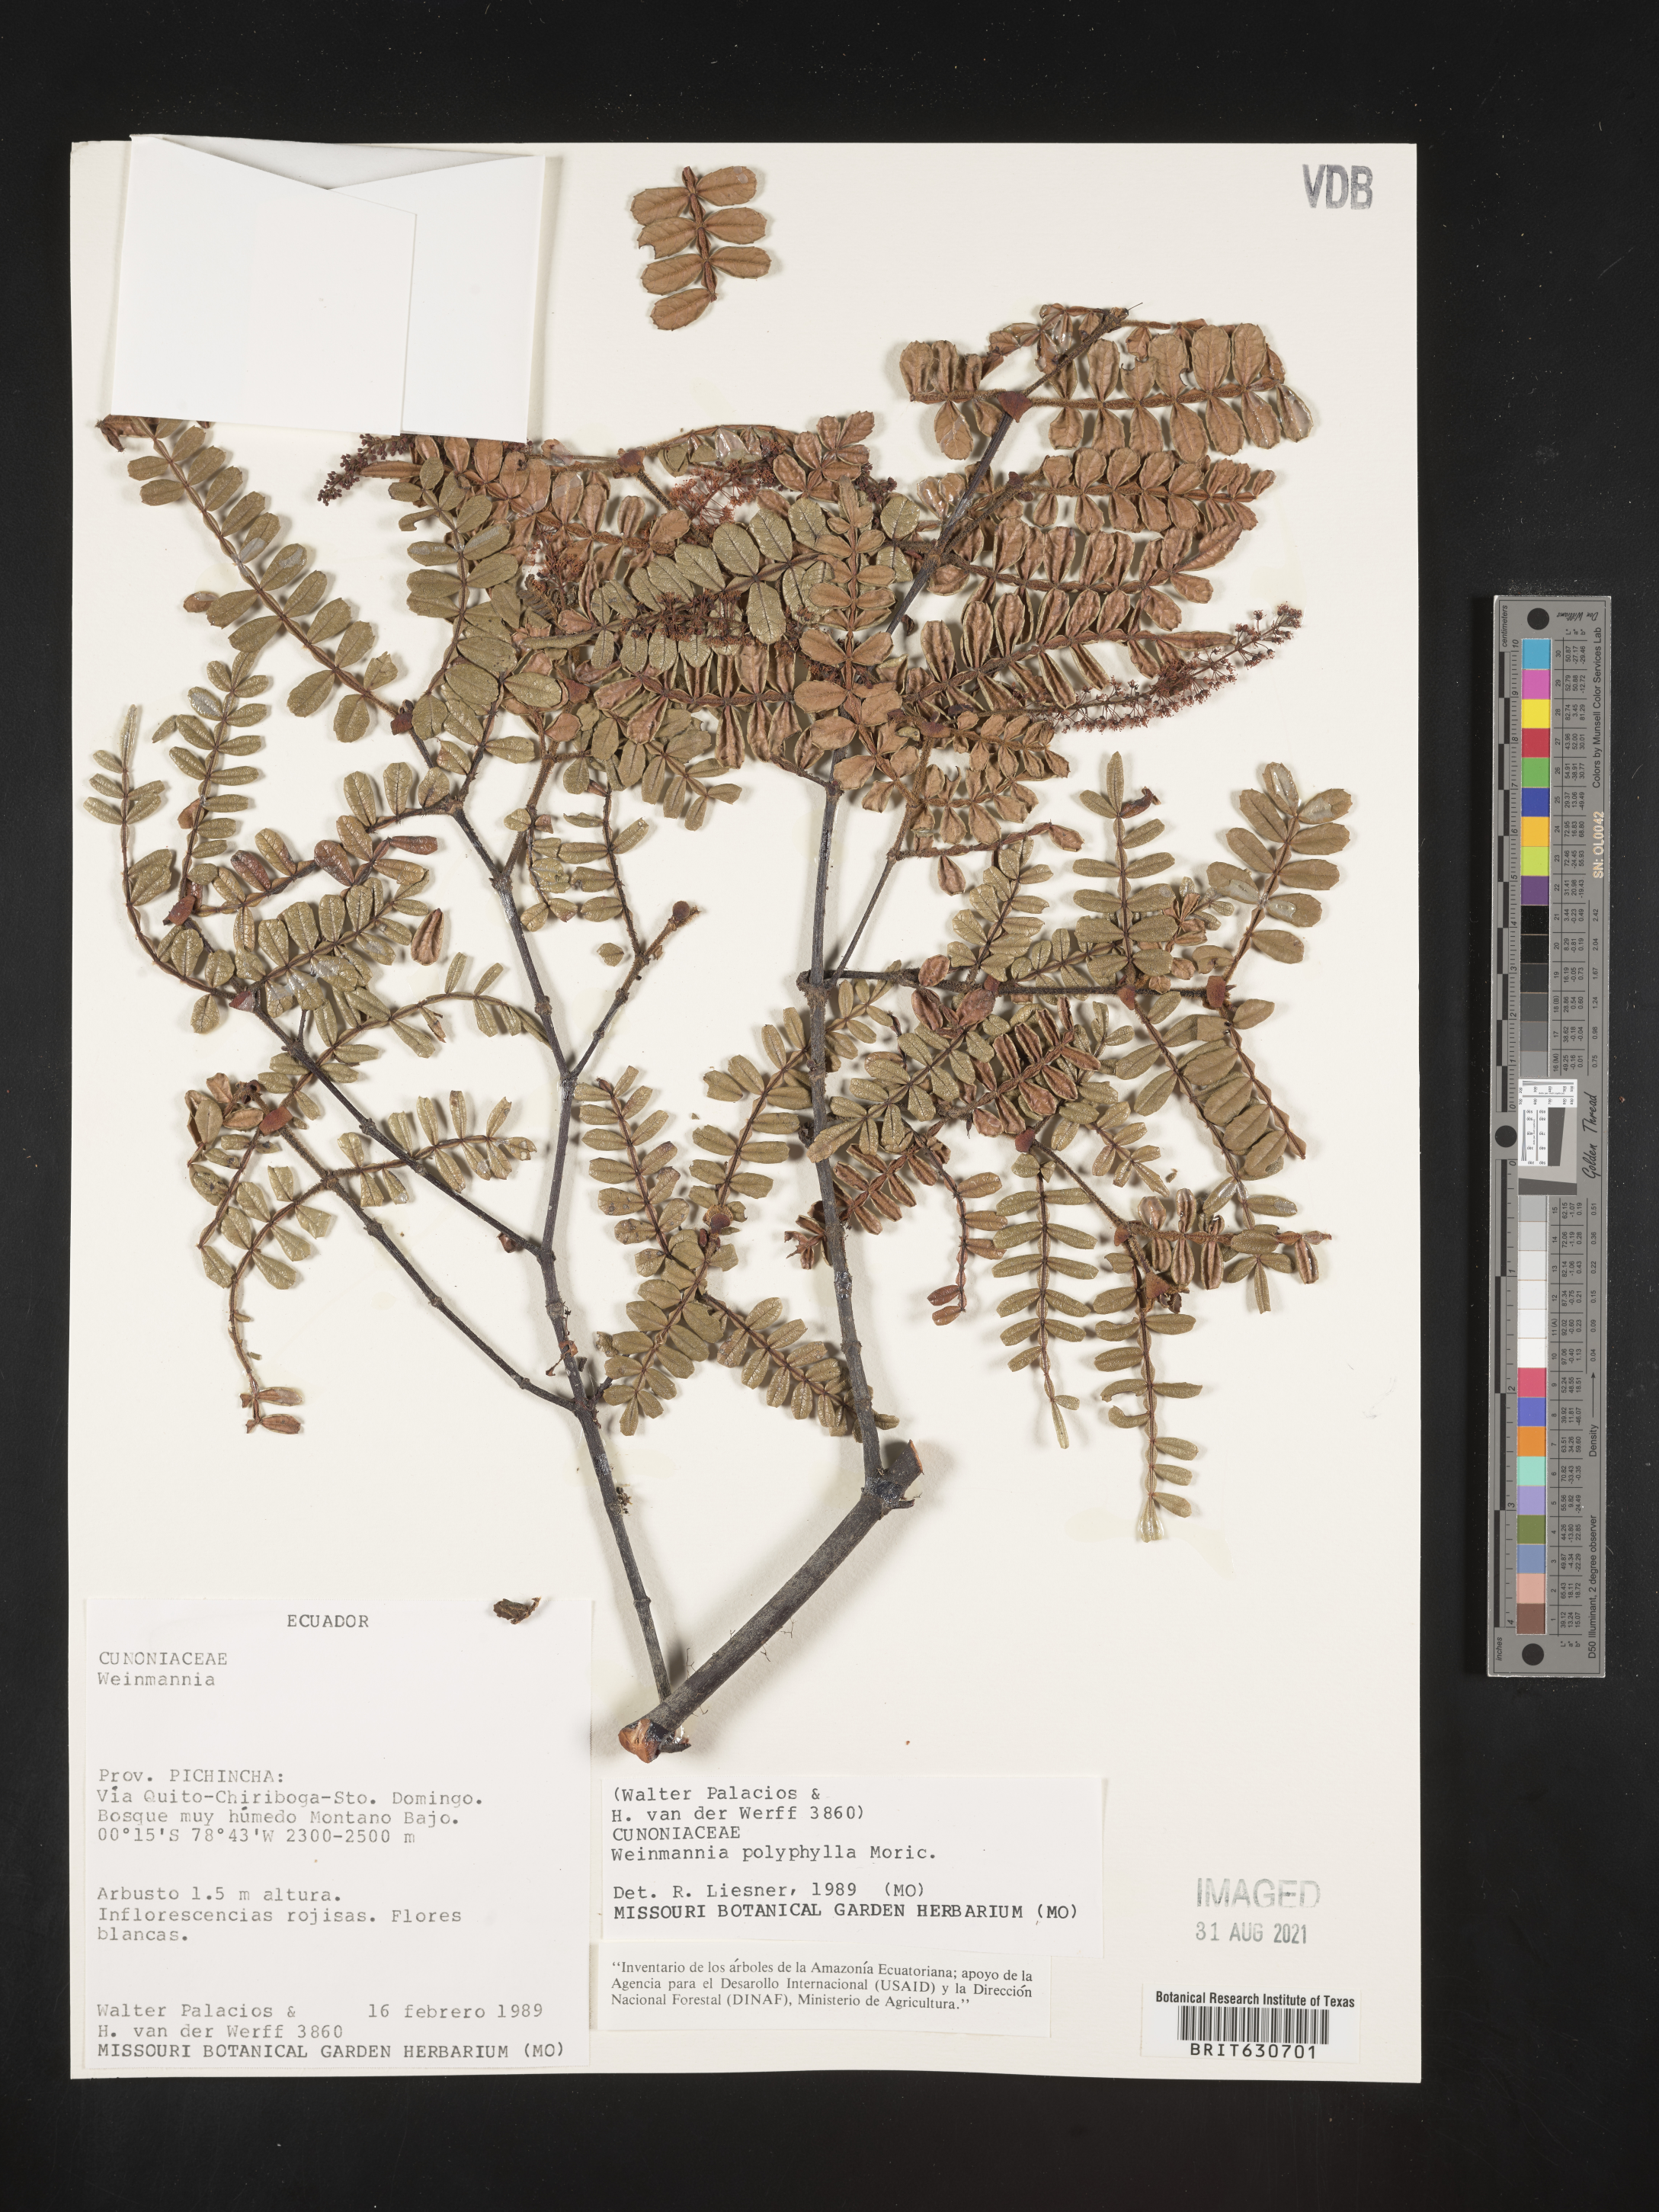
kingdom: Plantae
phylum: Tracheophyta
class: Magnoliopsida
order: Oxalidales
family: Cunoniaceae
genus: Weinmannia
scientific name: Weinmannia polyphylla
